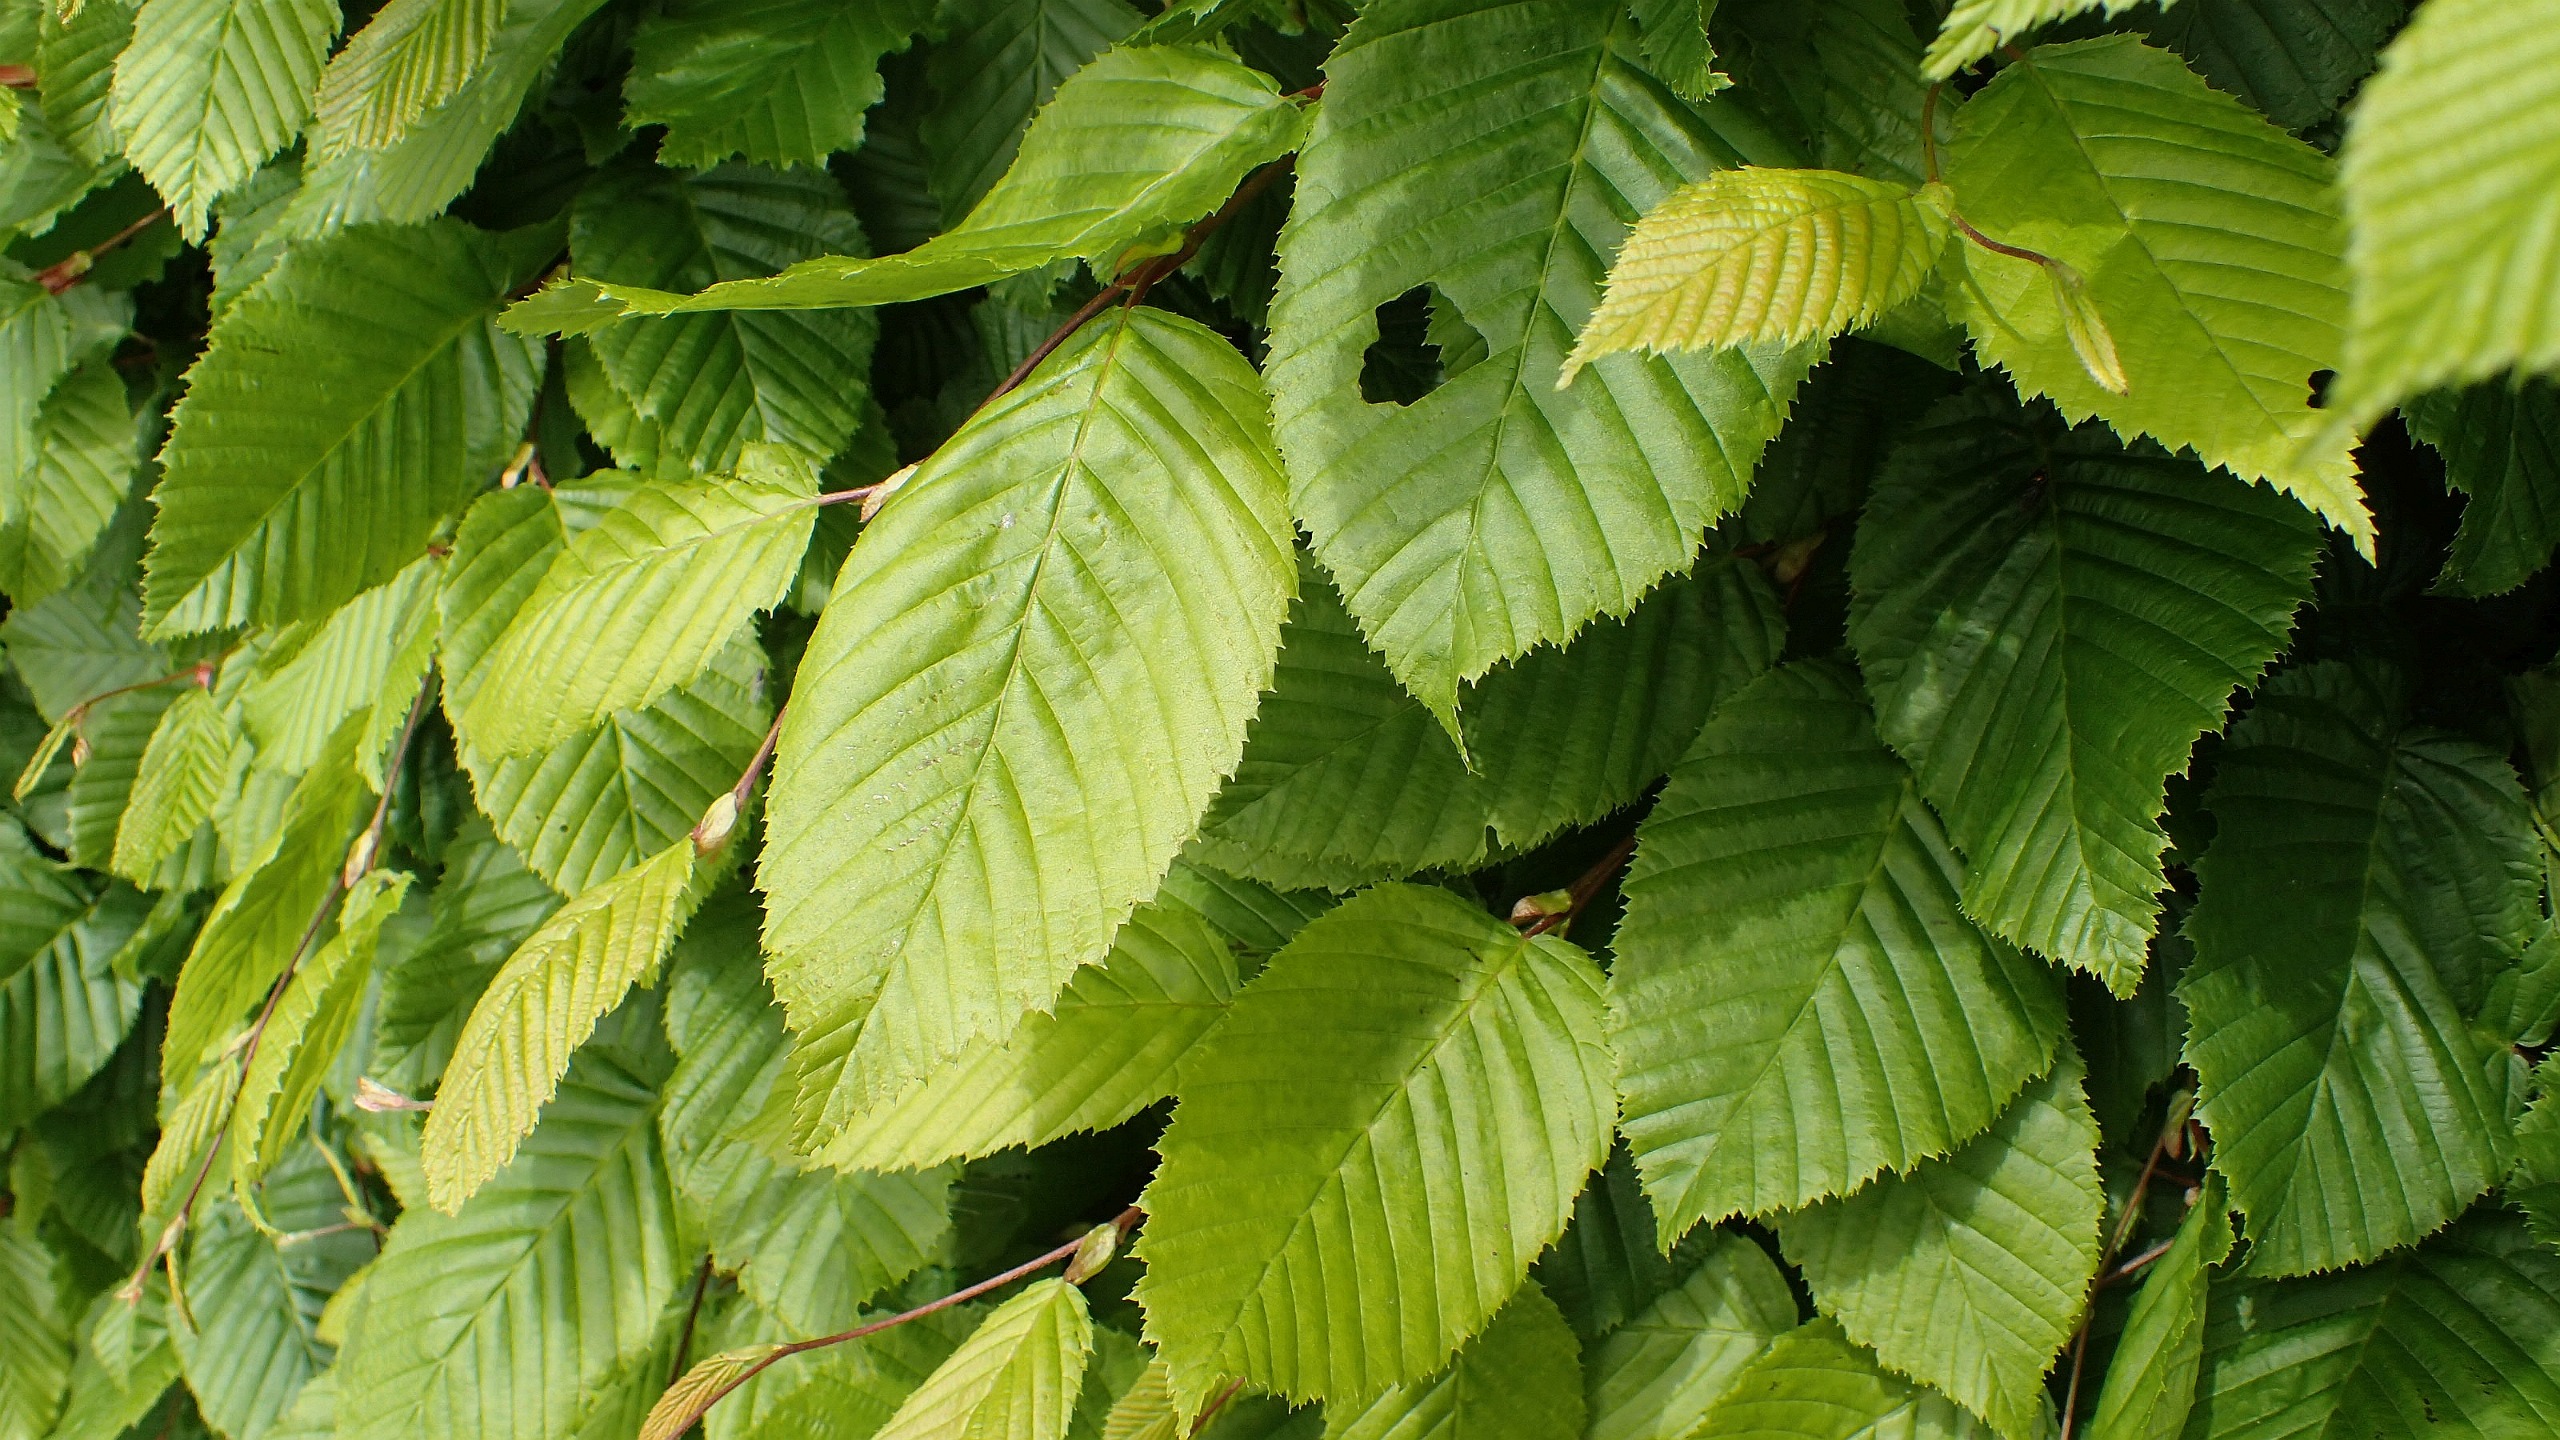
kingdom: Plantae
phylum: Tracheophyta
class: Magnoliopsida
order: Fagales
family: Betulaceae
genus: Carpinus
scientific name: Carpinus betulus
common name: Avnbøg
